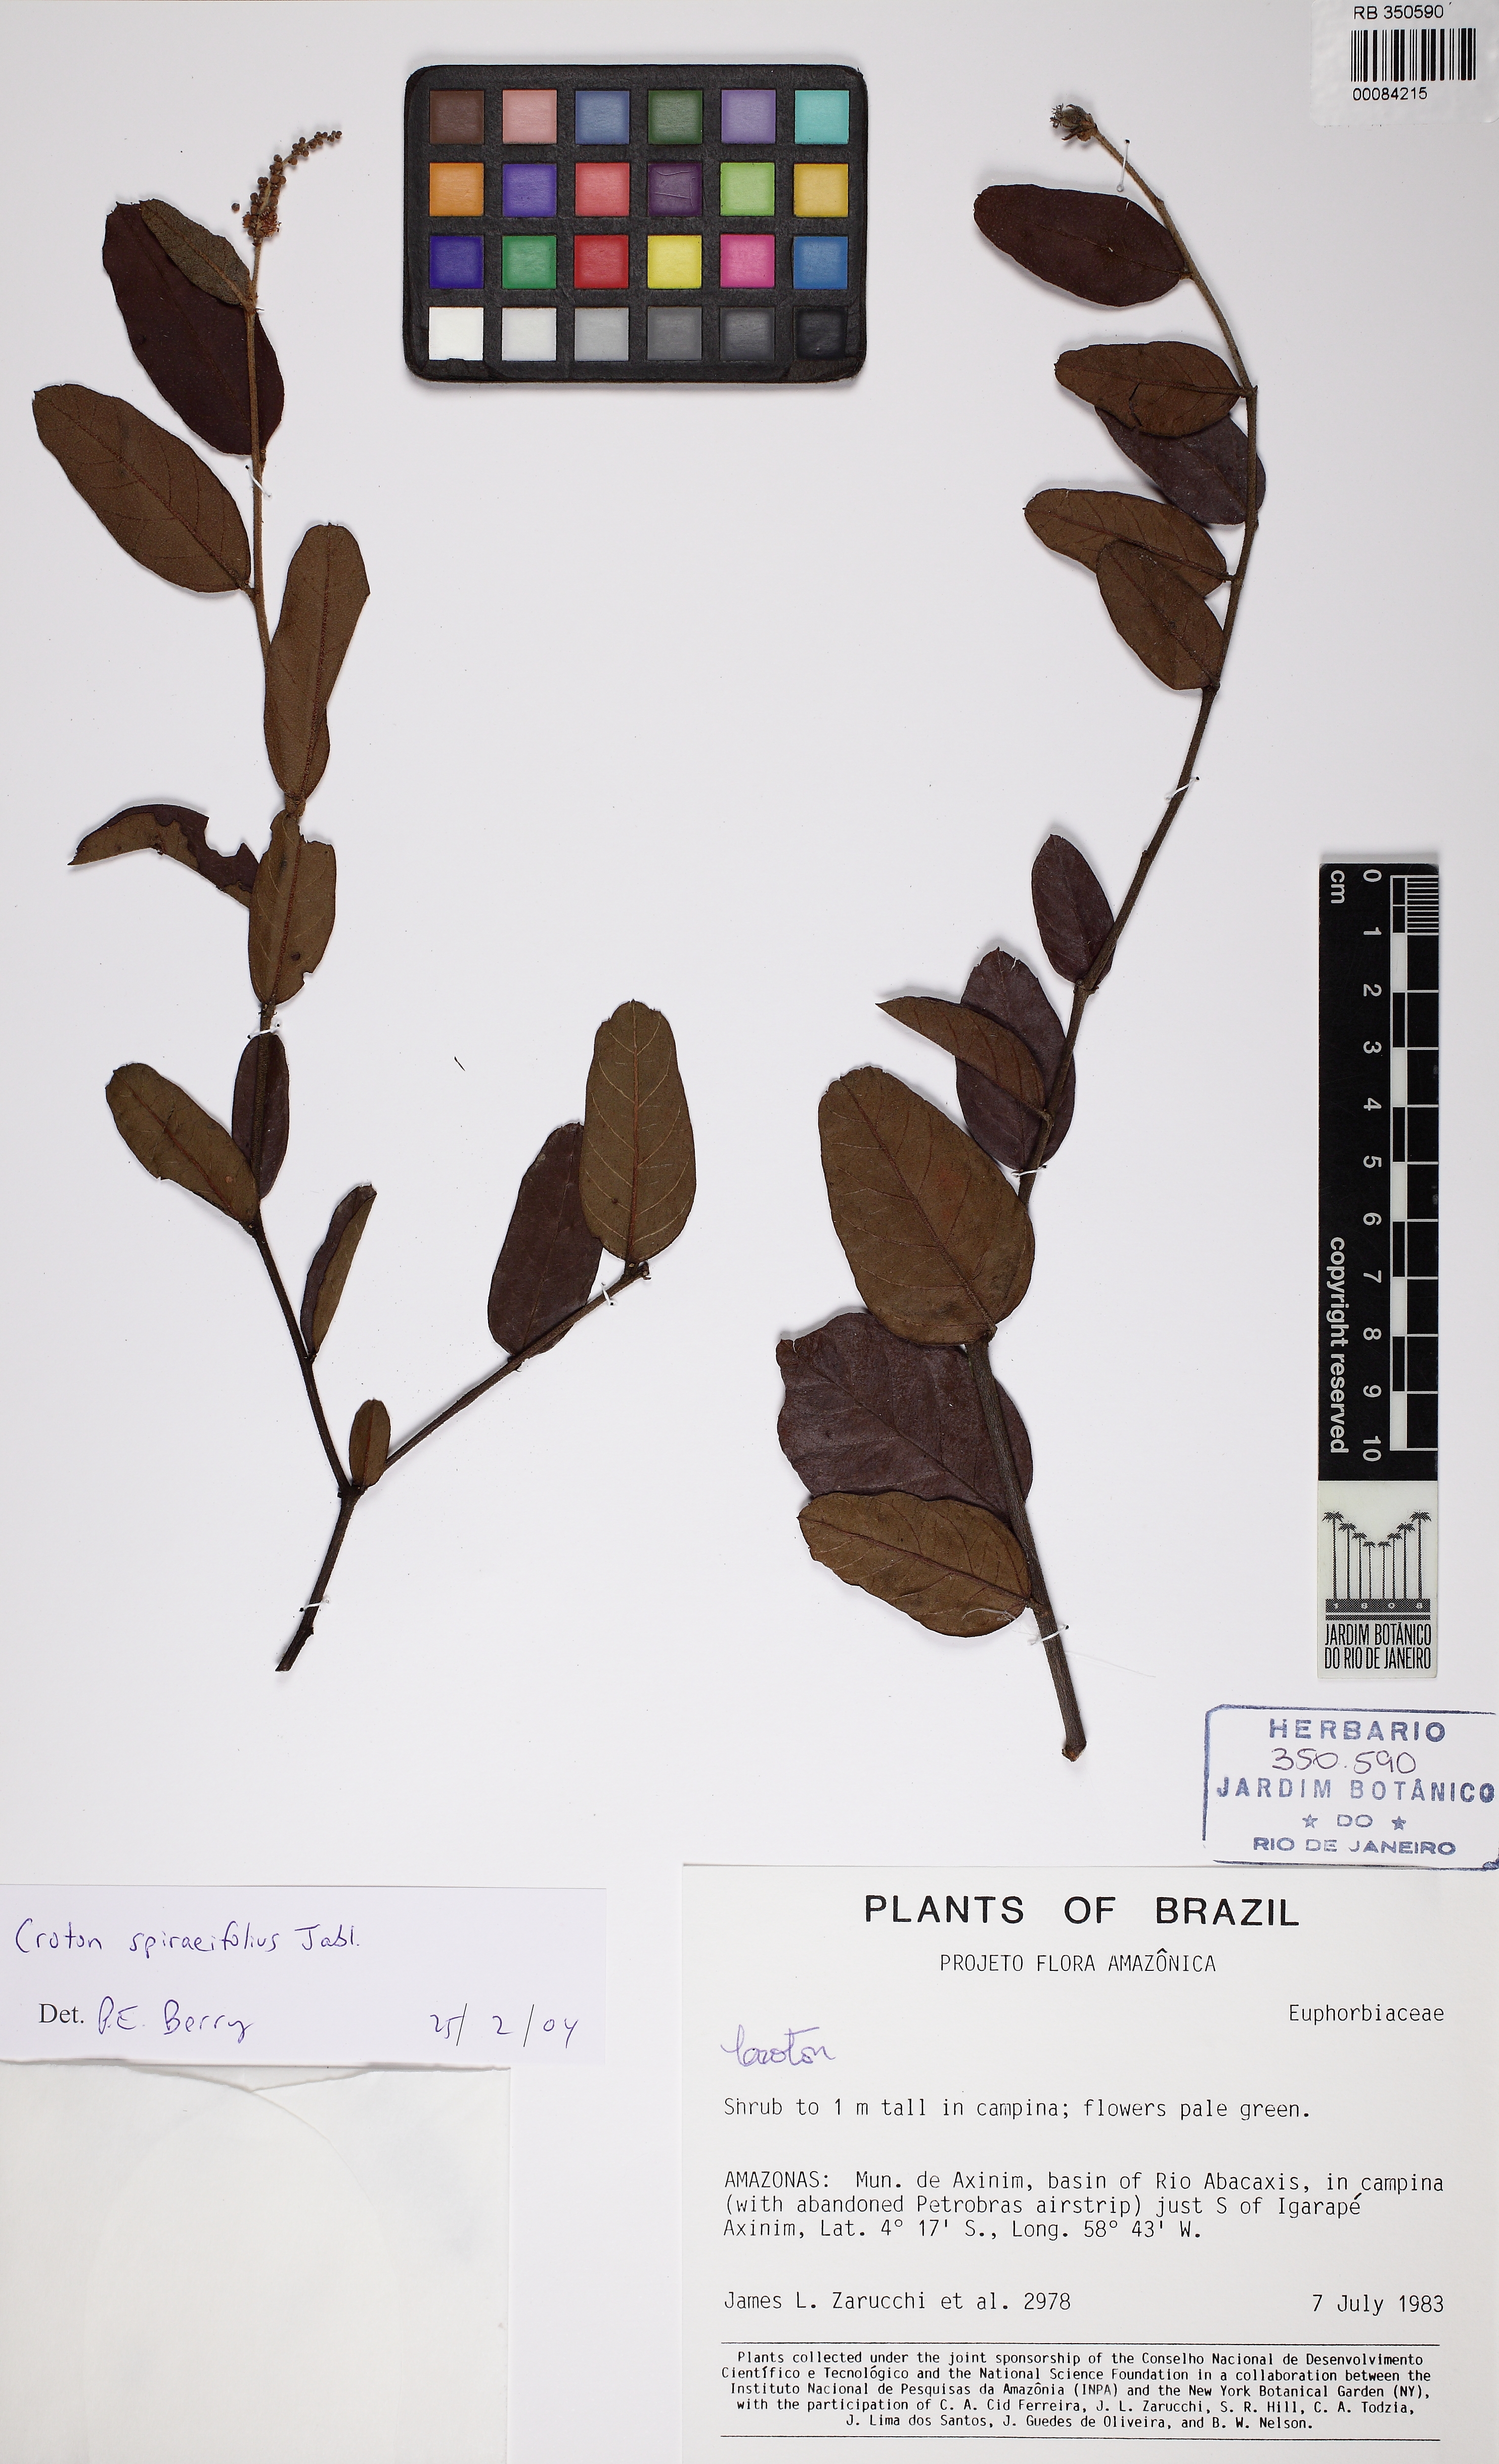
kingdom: Plantae
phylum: Tracheophyta
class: Magnoliopsida
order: Malpighiales
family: Euphorbiaceae
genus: Croton
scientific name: Croton spiraeifolius
